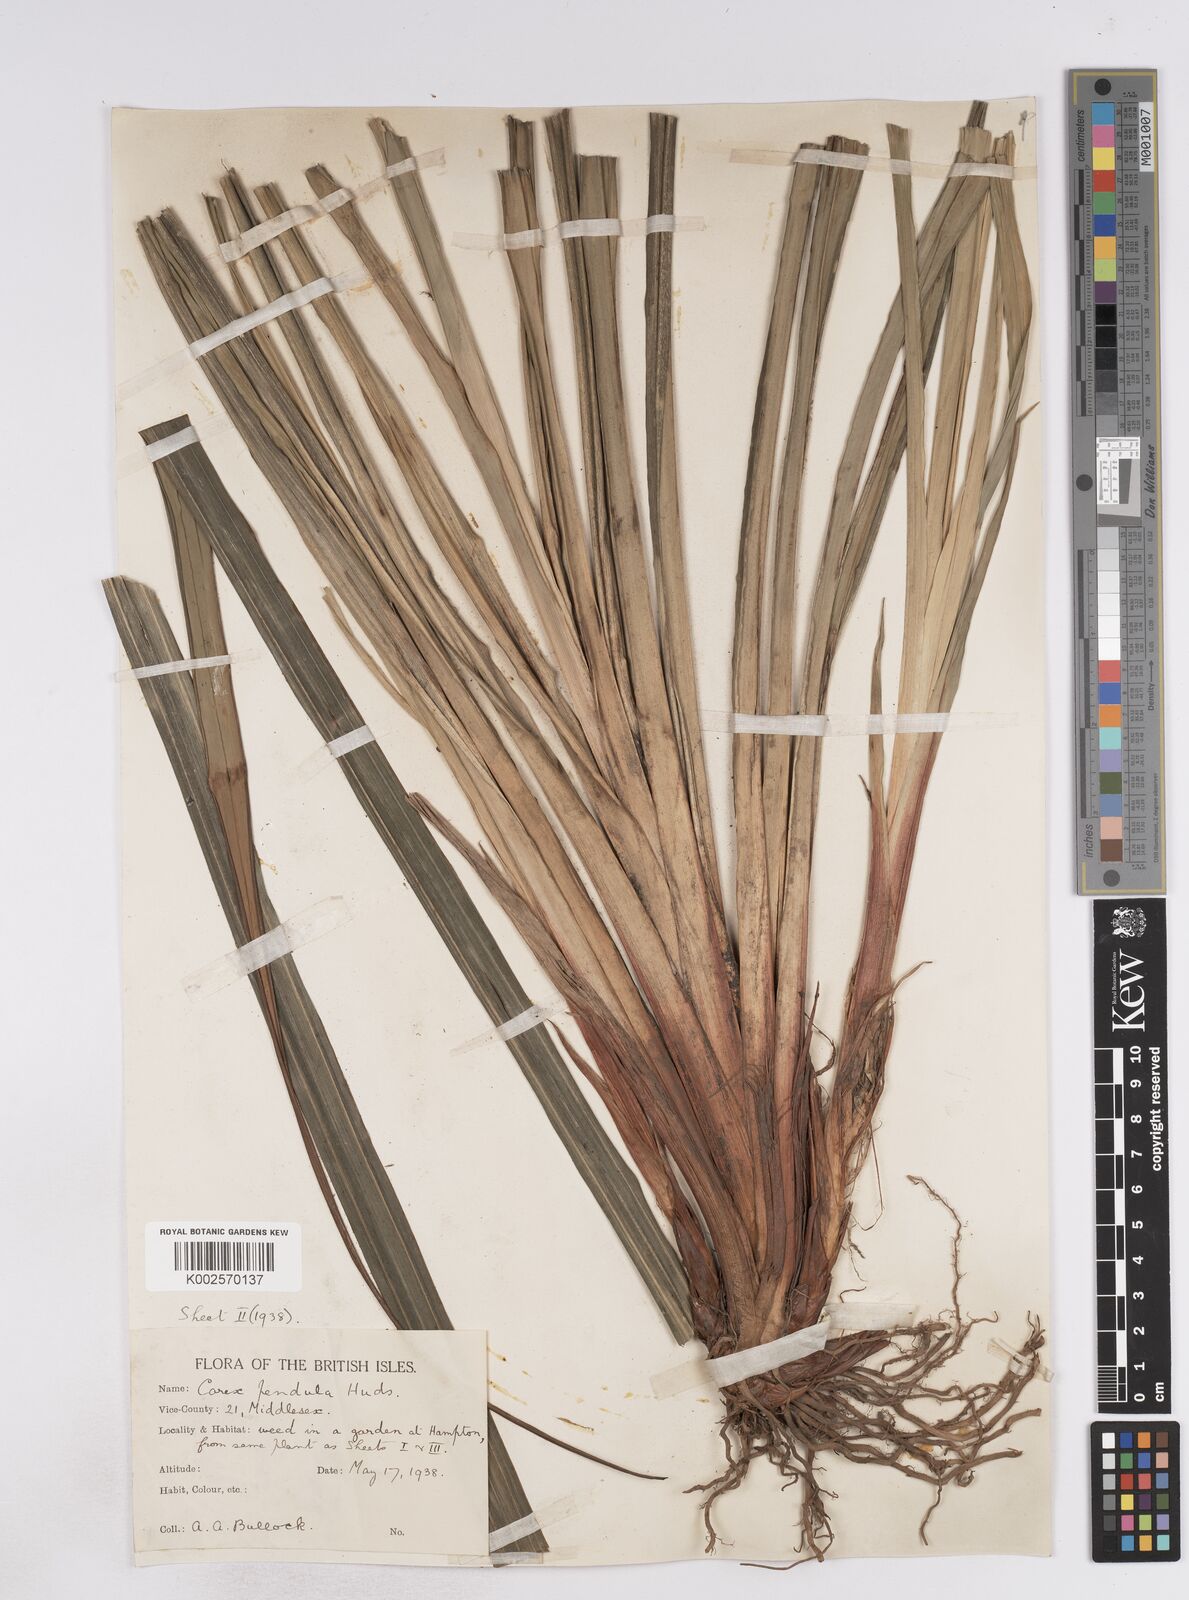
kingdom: Plantae
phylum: Tracheophyta
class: Liliopsida
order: Poales
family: Cyperaceae
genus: Carex
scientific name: Carex pendula
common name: Pendulous sedge
